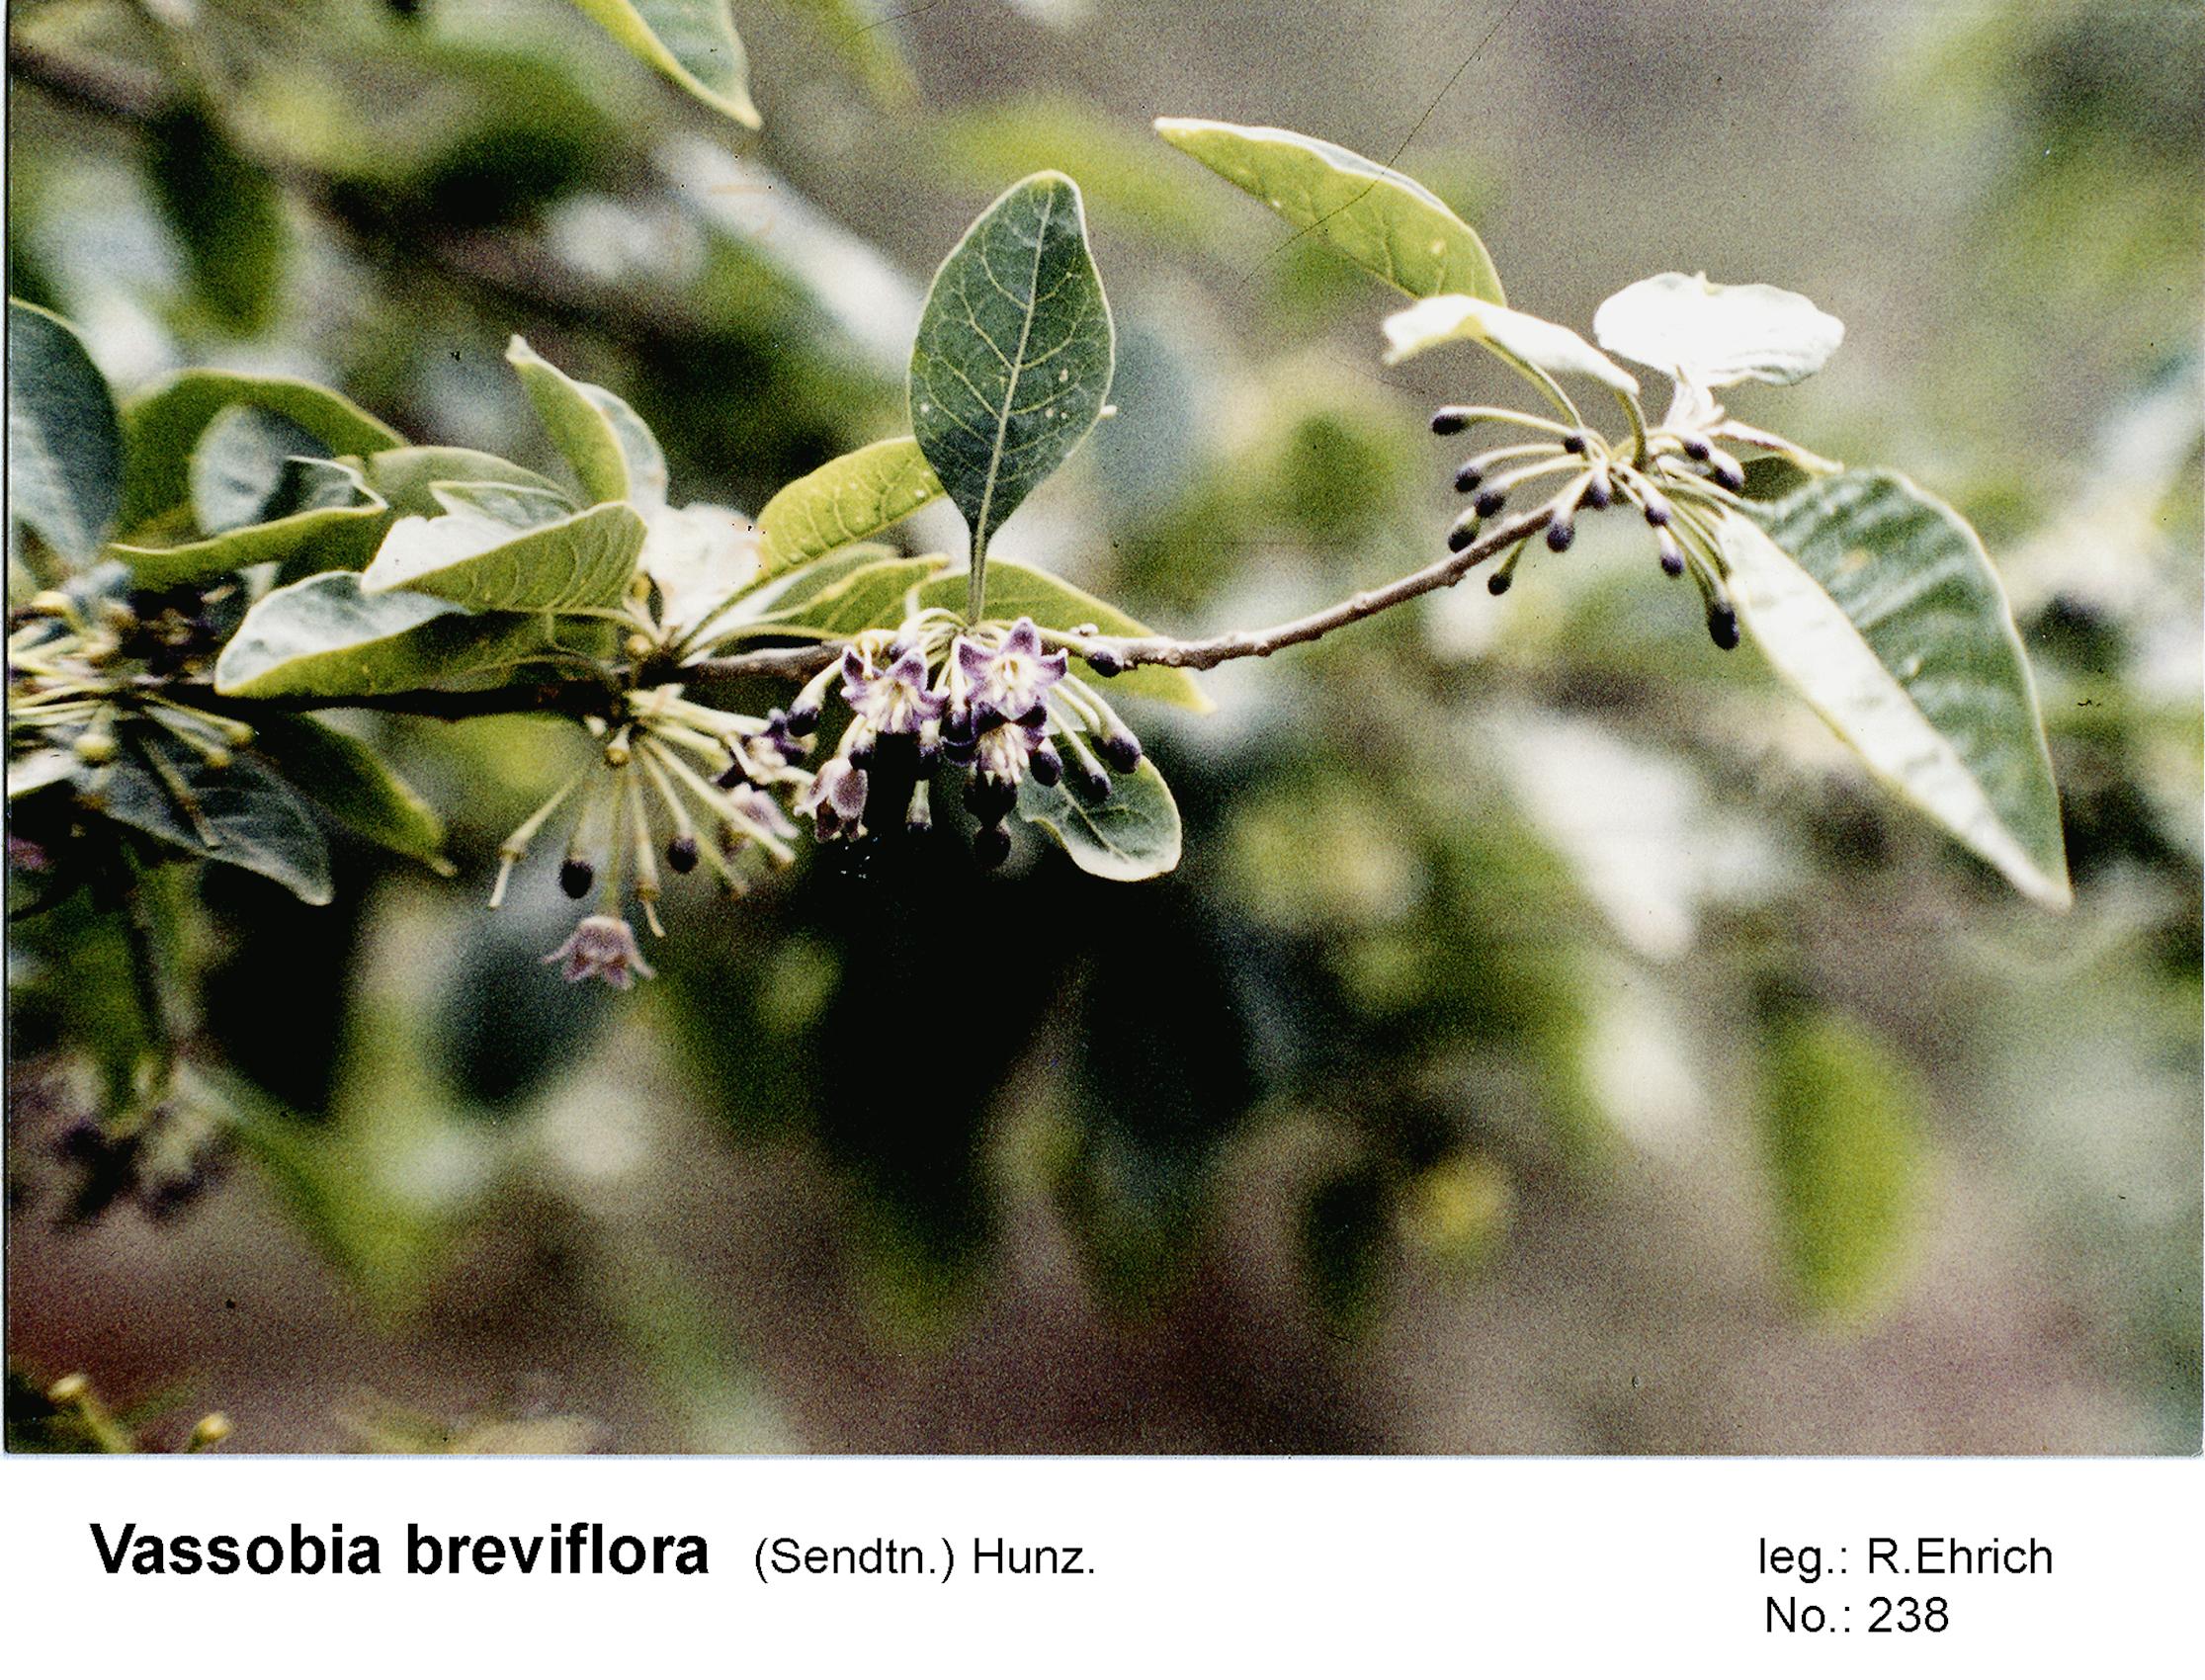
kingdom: Plantae
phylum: Tracheophyta
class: Magnoliopsida
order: Solanales
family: Solanaceae
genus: Vassobia
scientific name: Vassobia breviflora
